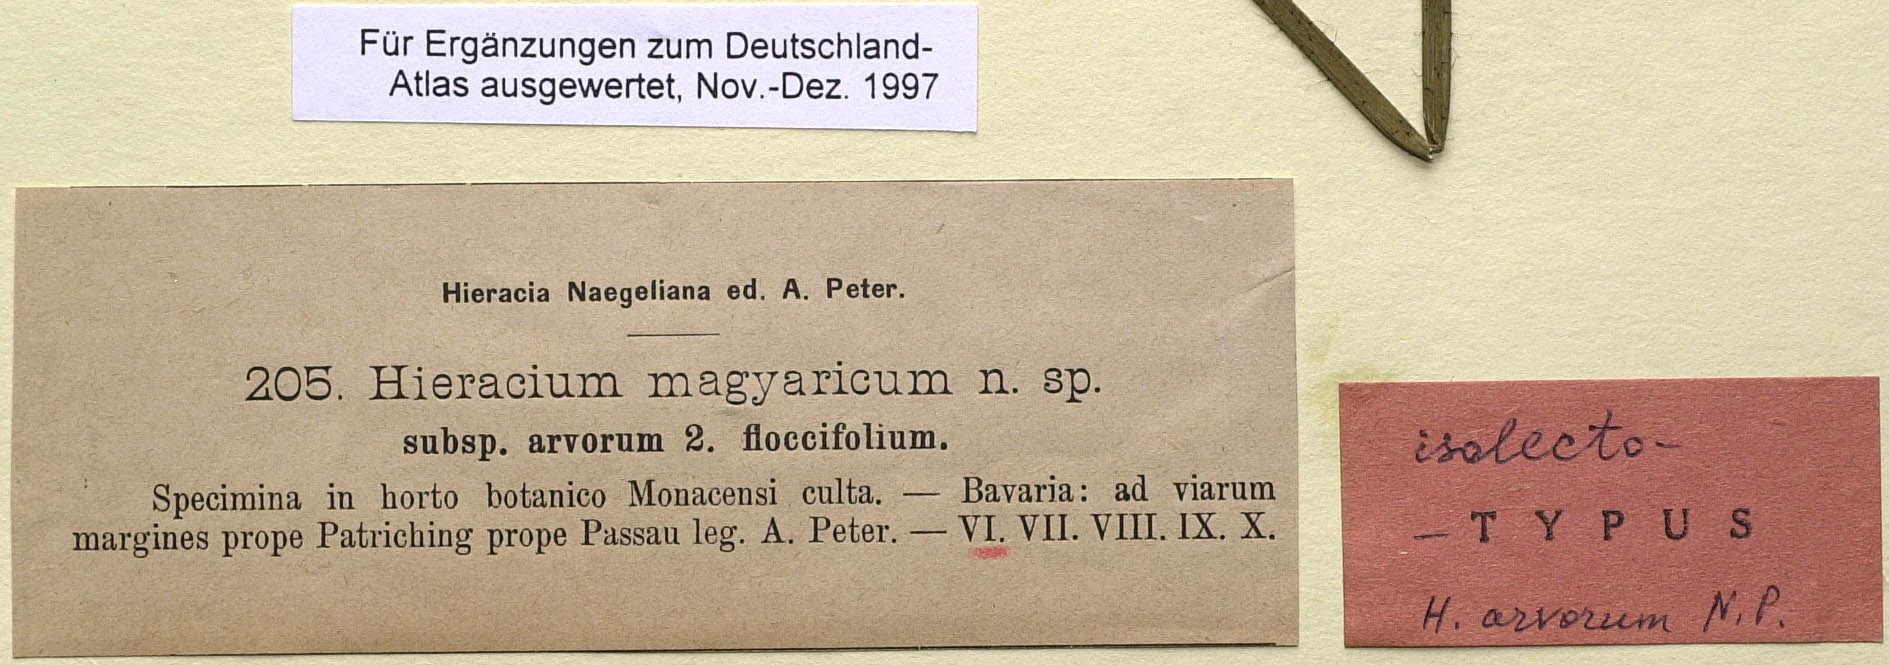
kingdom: Plantae
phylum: Tracheophyta
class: Magnoliopsida
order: Asterales
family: Asteraceae
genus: Pilosella
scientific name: Pilosella bauhini
